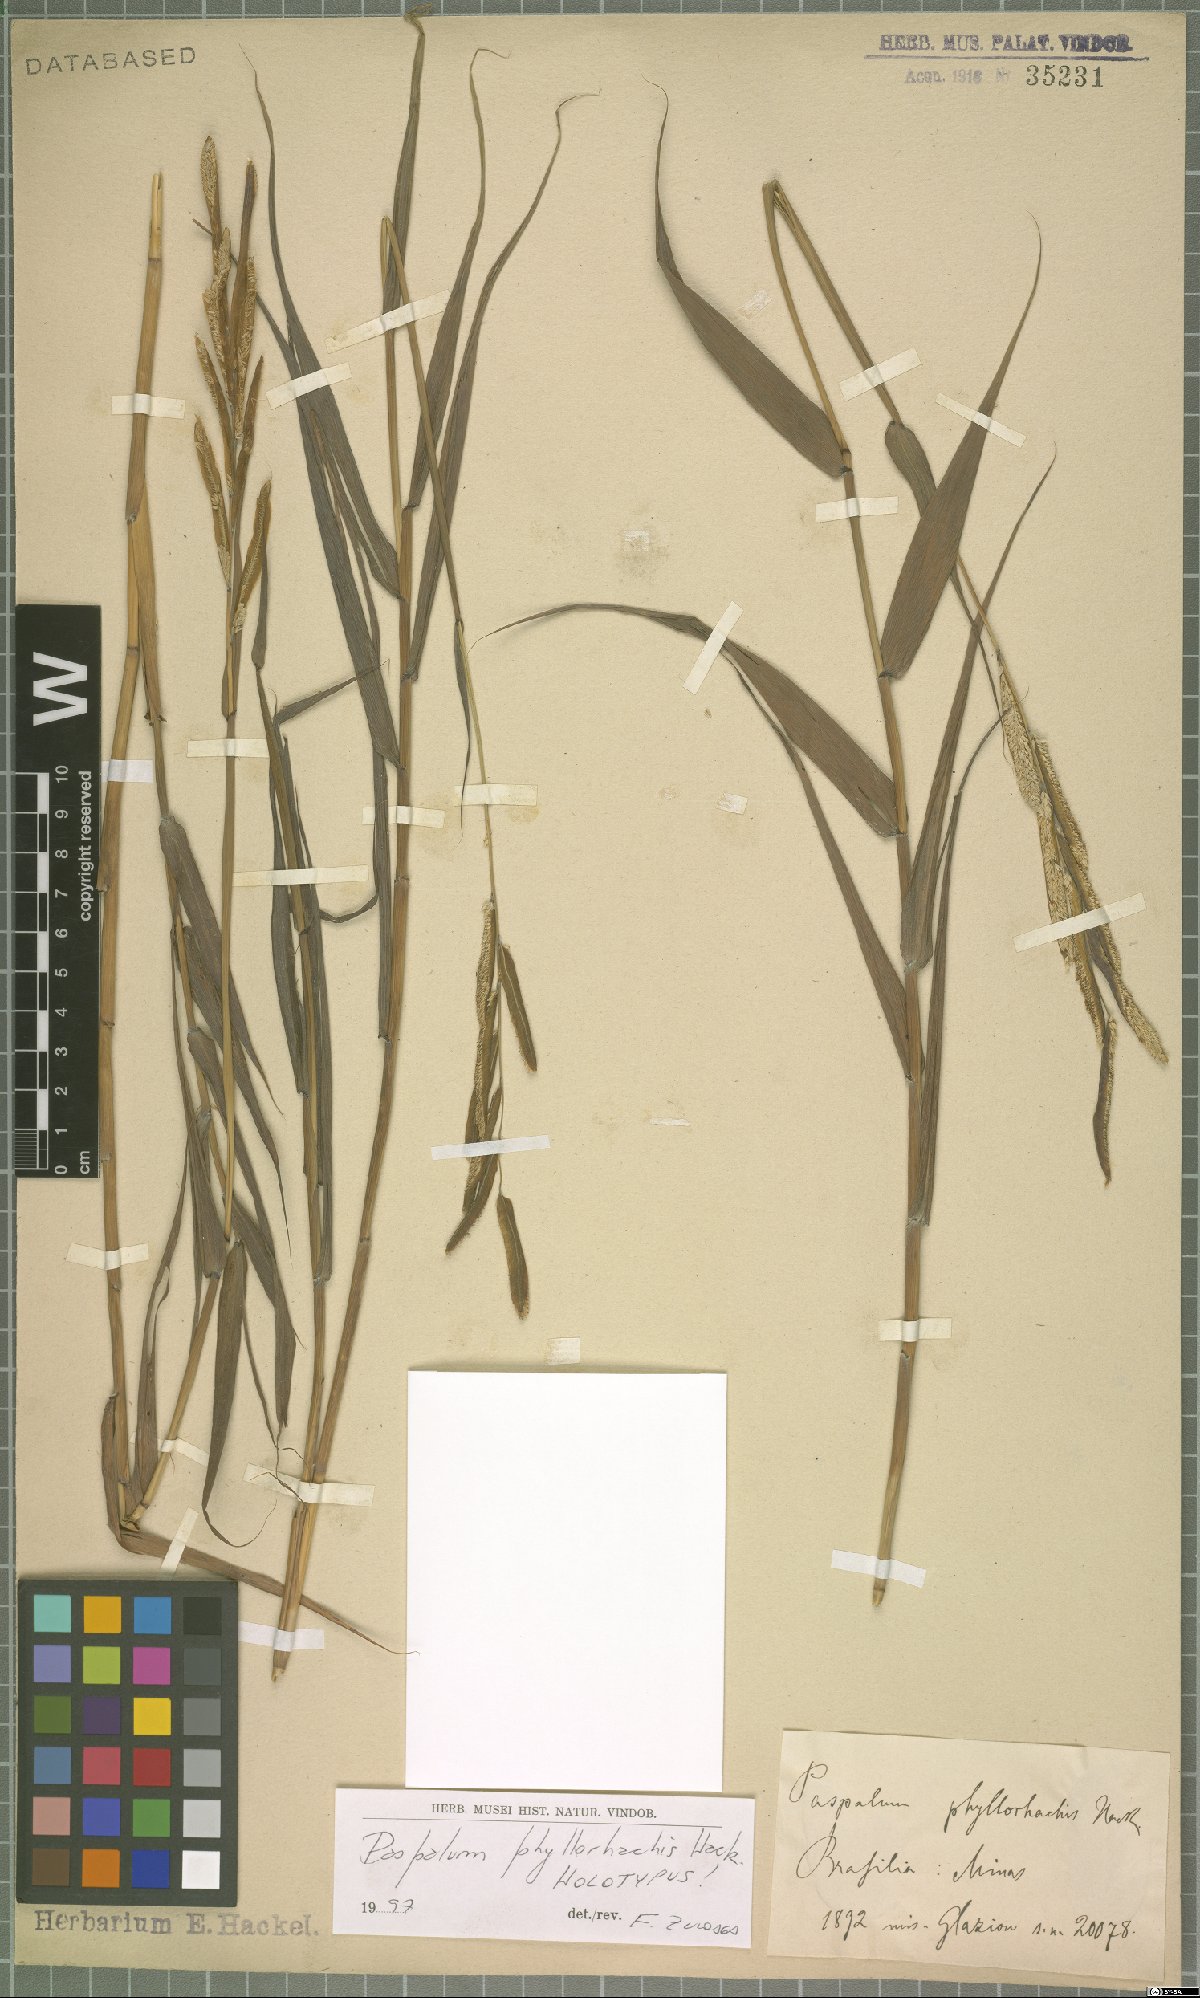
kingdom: Plantae
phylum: Tracheophyta
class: Liliopsida
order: Poales
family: Poaceae
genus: Paspalum
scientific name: Paspalum phyllorhachis
